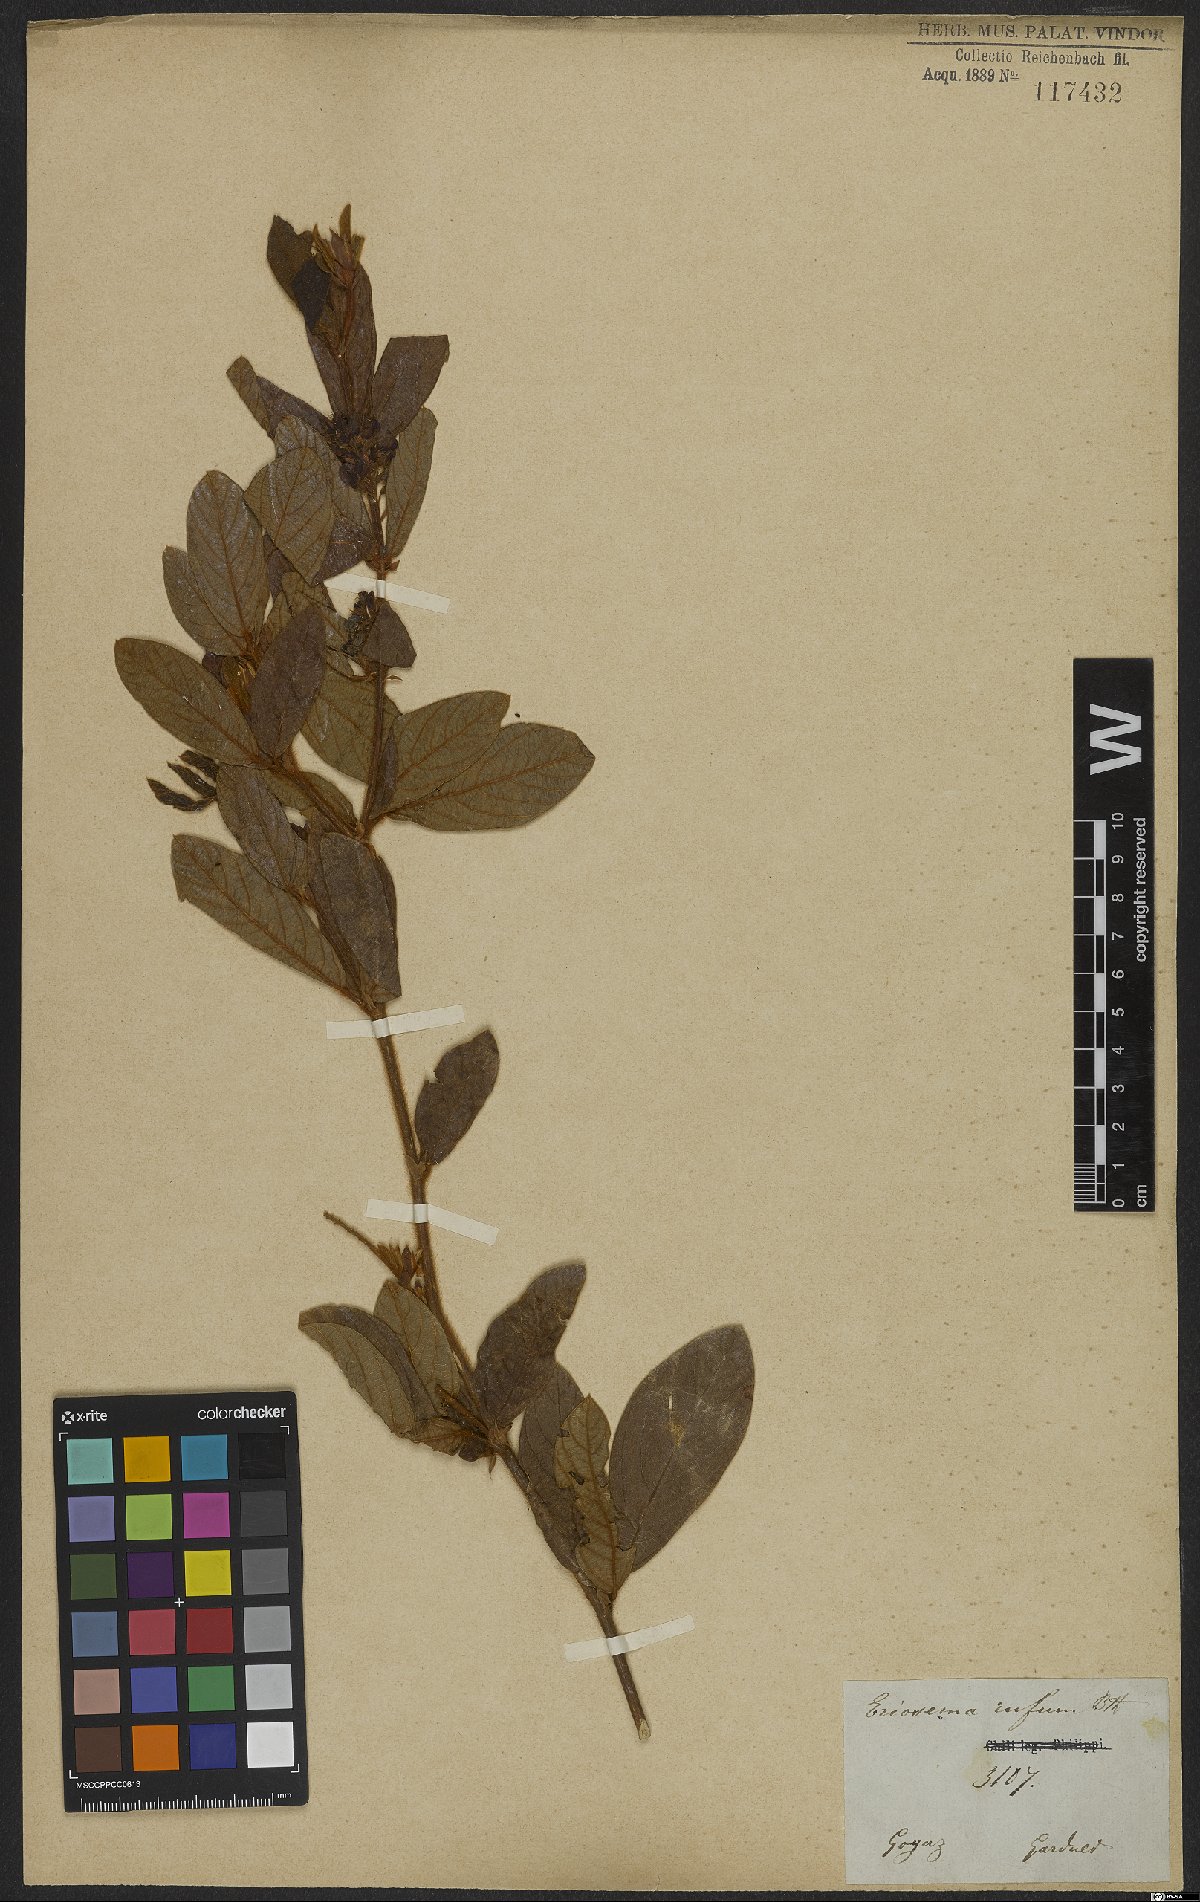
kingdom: Plantae
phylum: Tracheophyta
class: Magnoliopsida
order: Fabales
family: Fabaceae
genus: Eriosema
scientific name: Eriosema rufum
